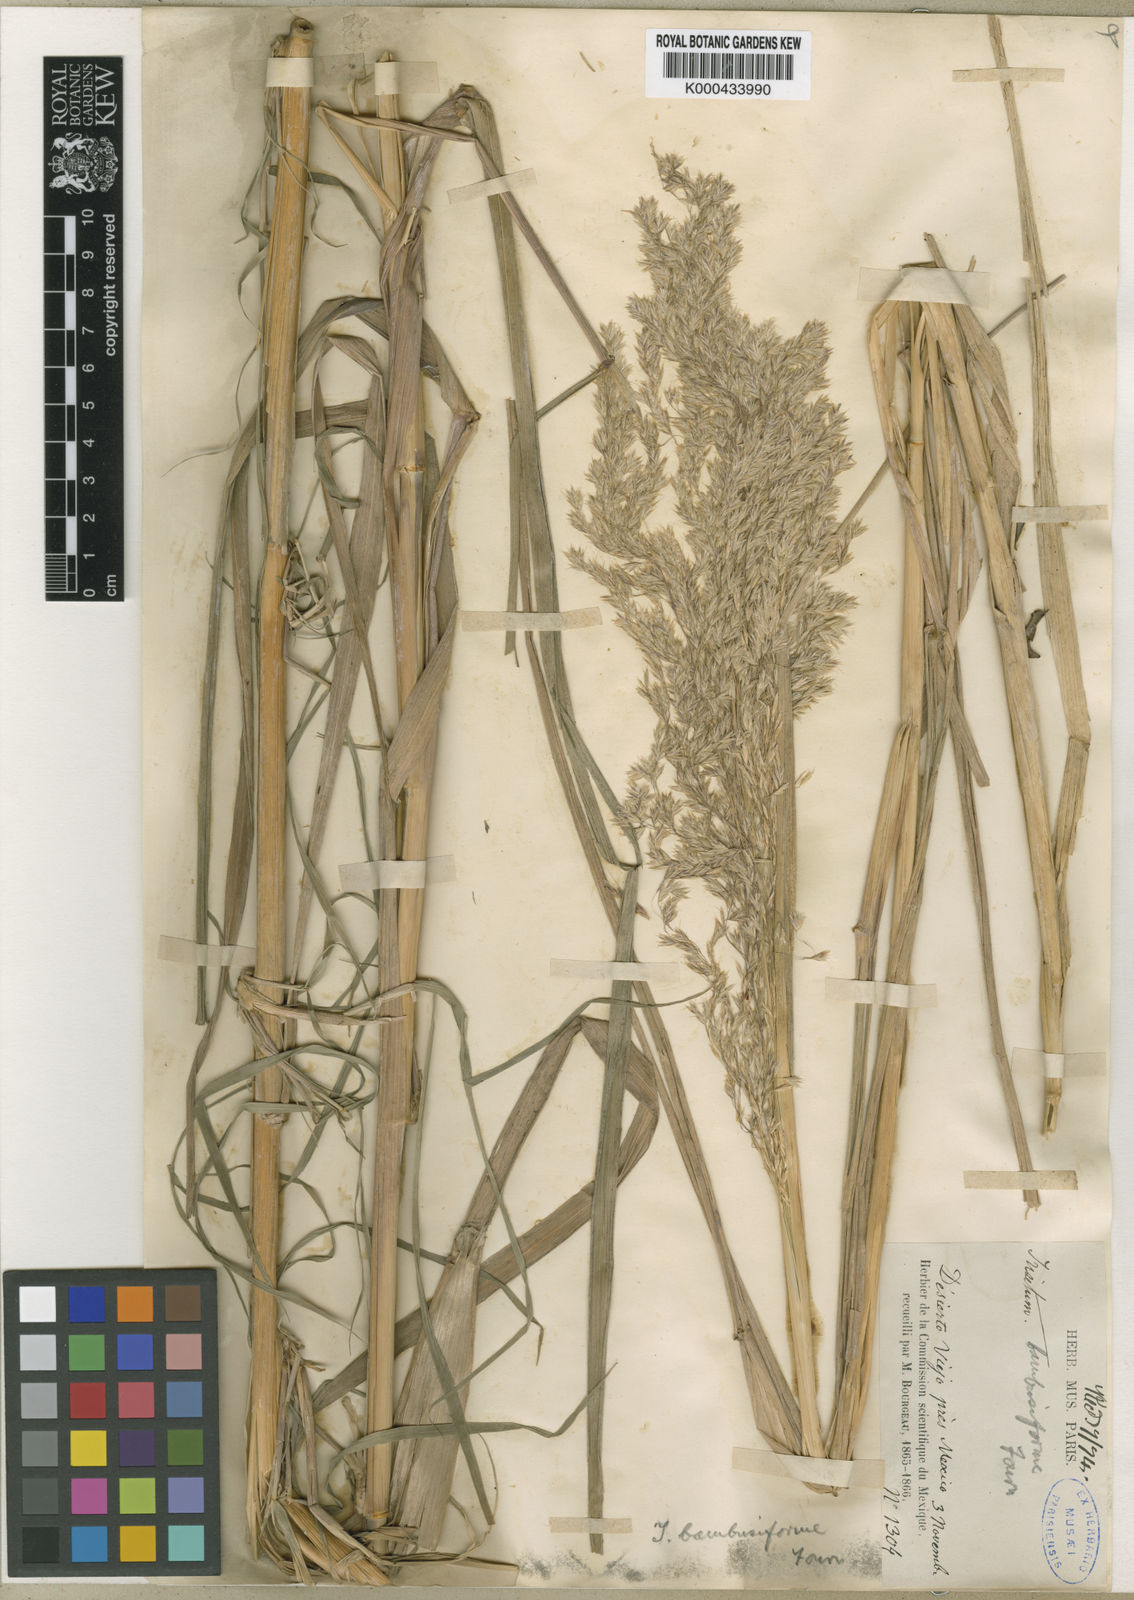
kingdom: Plantae
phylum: Tracheophyta
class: Liliopsida
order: Poales
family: Poaceae
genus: Peyritschia
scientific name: Peyritschia virletii
